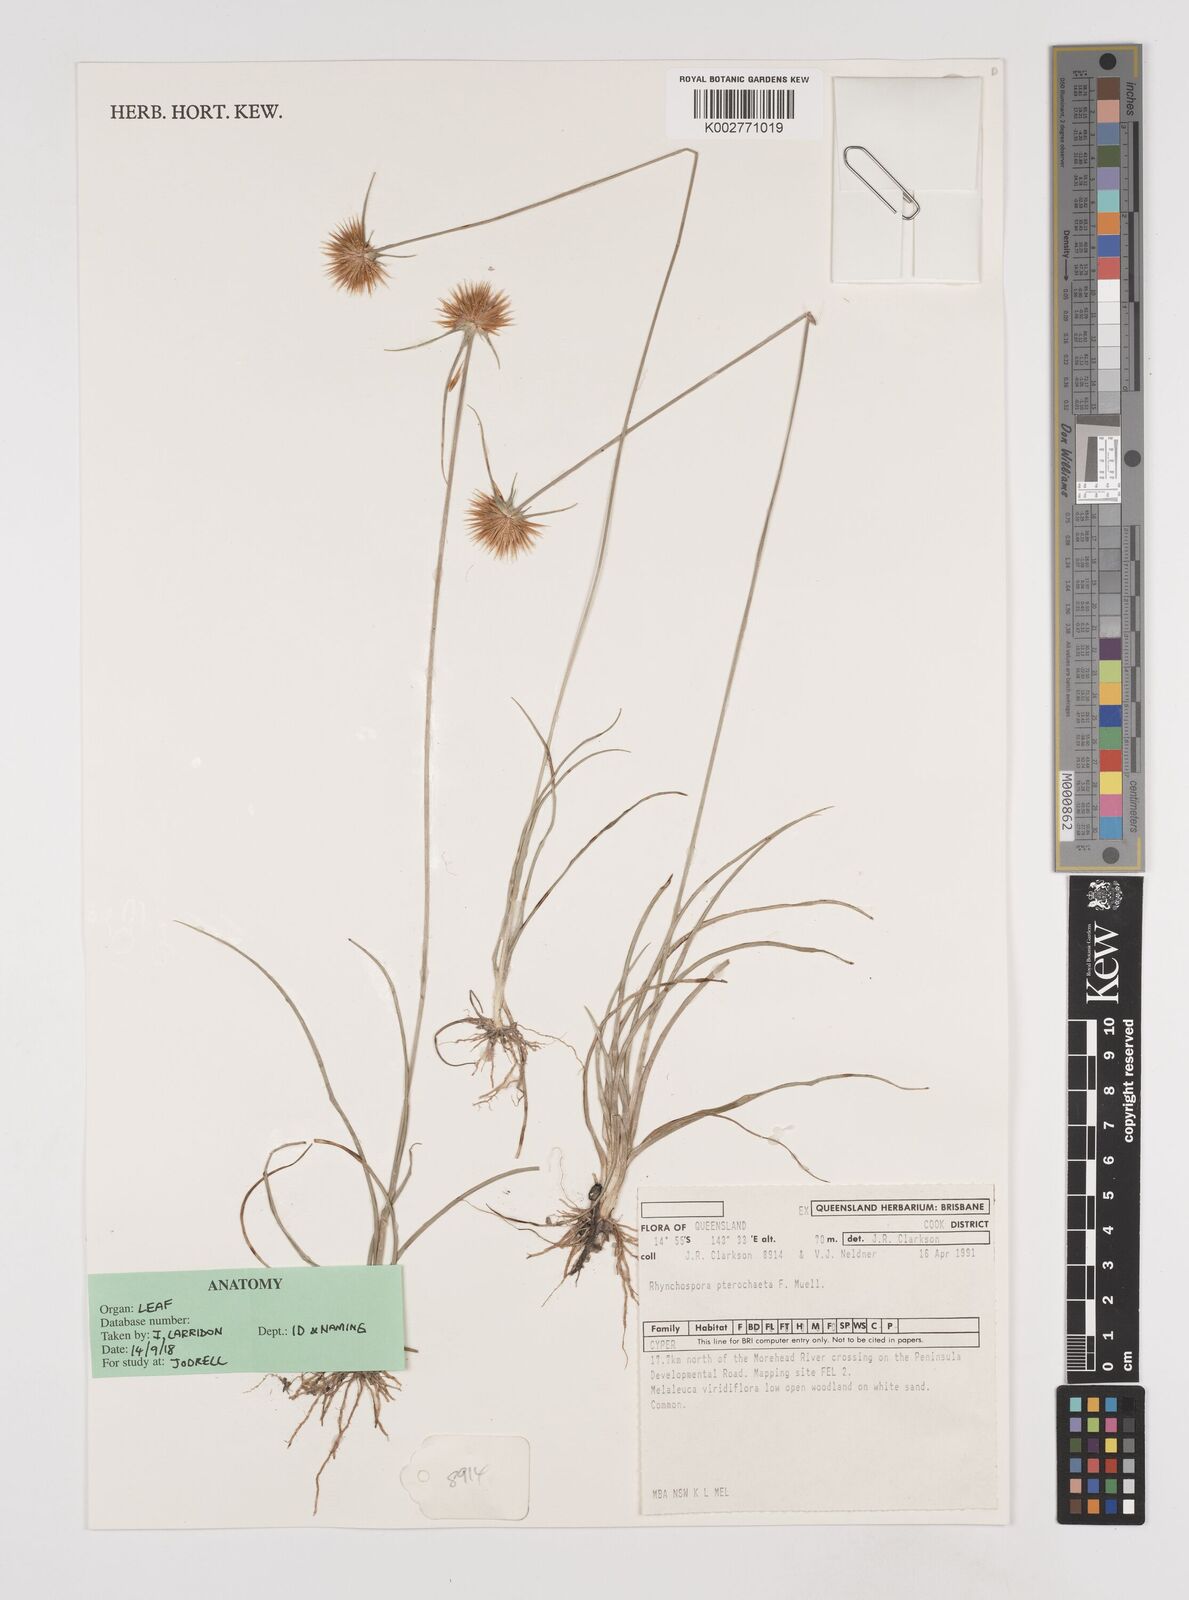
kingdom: Plantae
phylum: Tracheophyta
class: Liliopsida
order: Poales
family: Cyperaceae
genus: Rhynchospora
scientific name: Rhynchospora pterochaeta
